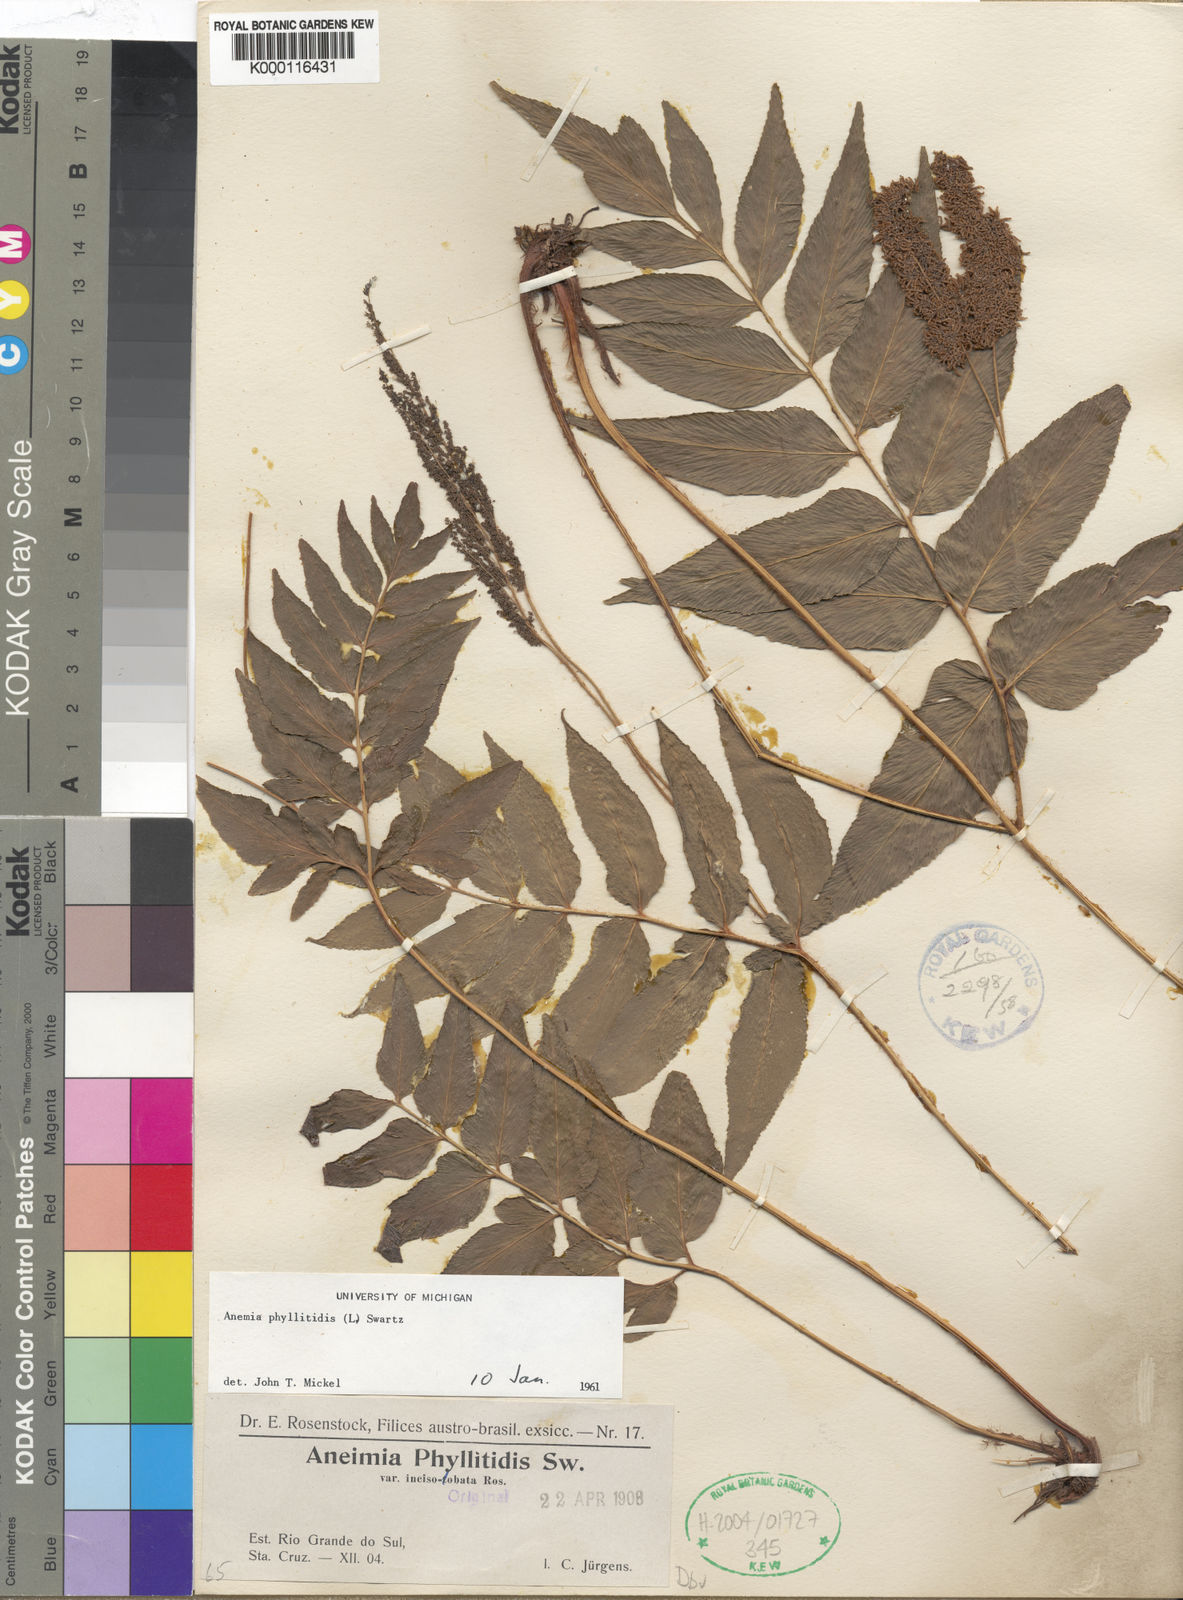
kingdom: Plantae
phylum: Tracheophyta
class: Polypodiopsida
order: Schizaeales
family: Anemiaceae
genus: Anemia
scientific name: Anemia phyllitidis
